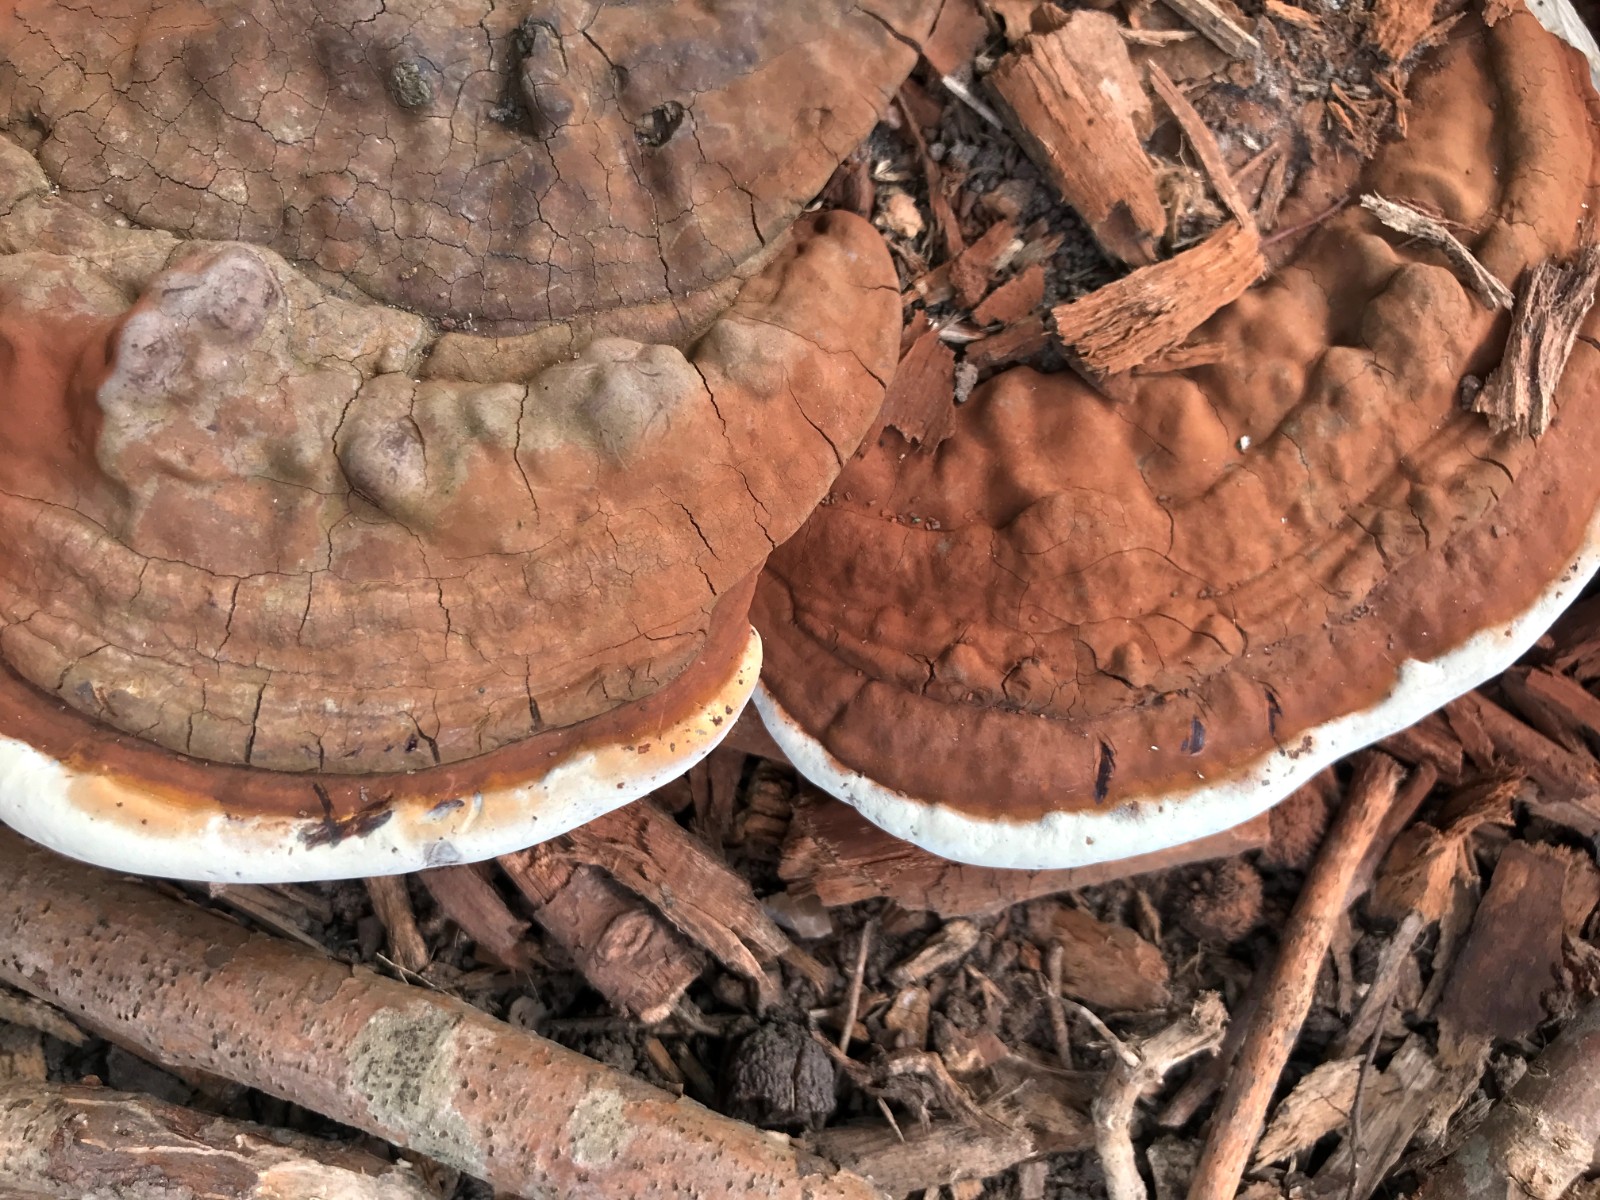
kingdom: Fungi
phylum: Basidiomycota
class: Agaricomycetes
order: Polyporales
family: Polyporaceae
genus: Ganoderma
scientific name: Ganoderma applanatum
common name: flad lakporesvamp
